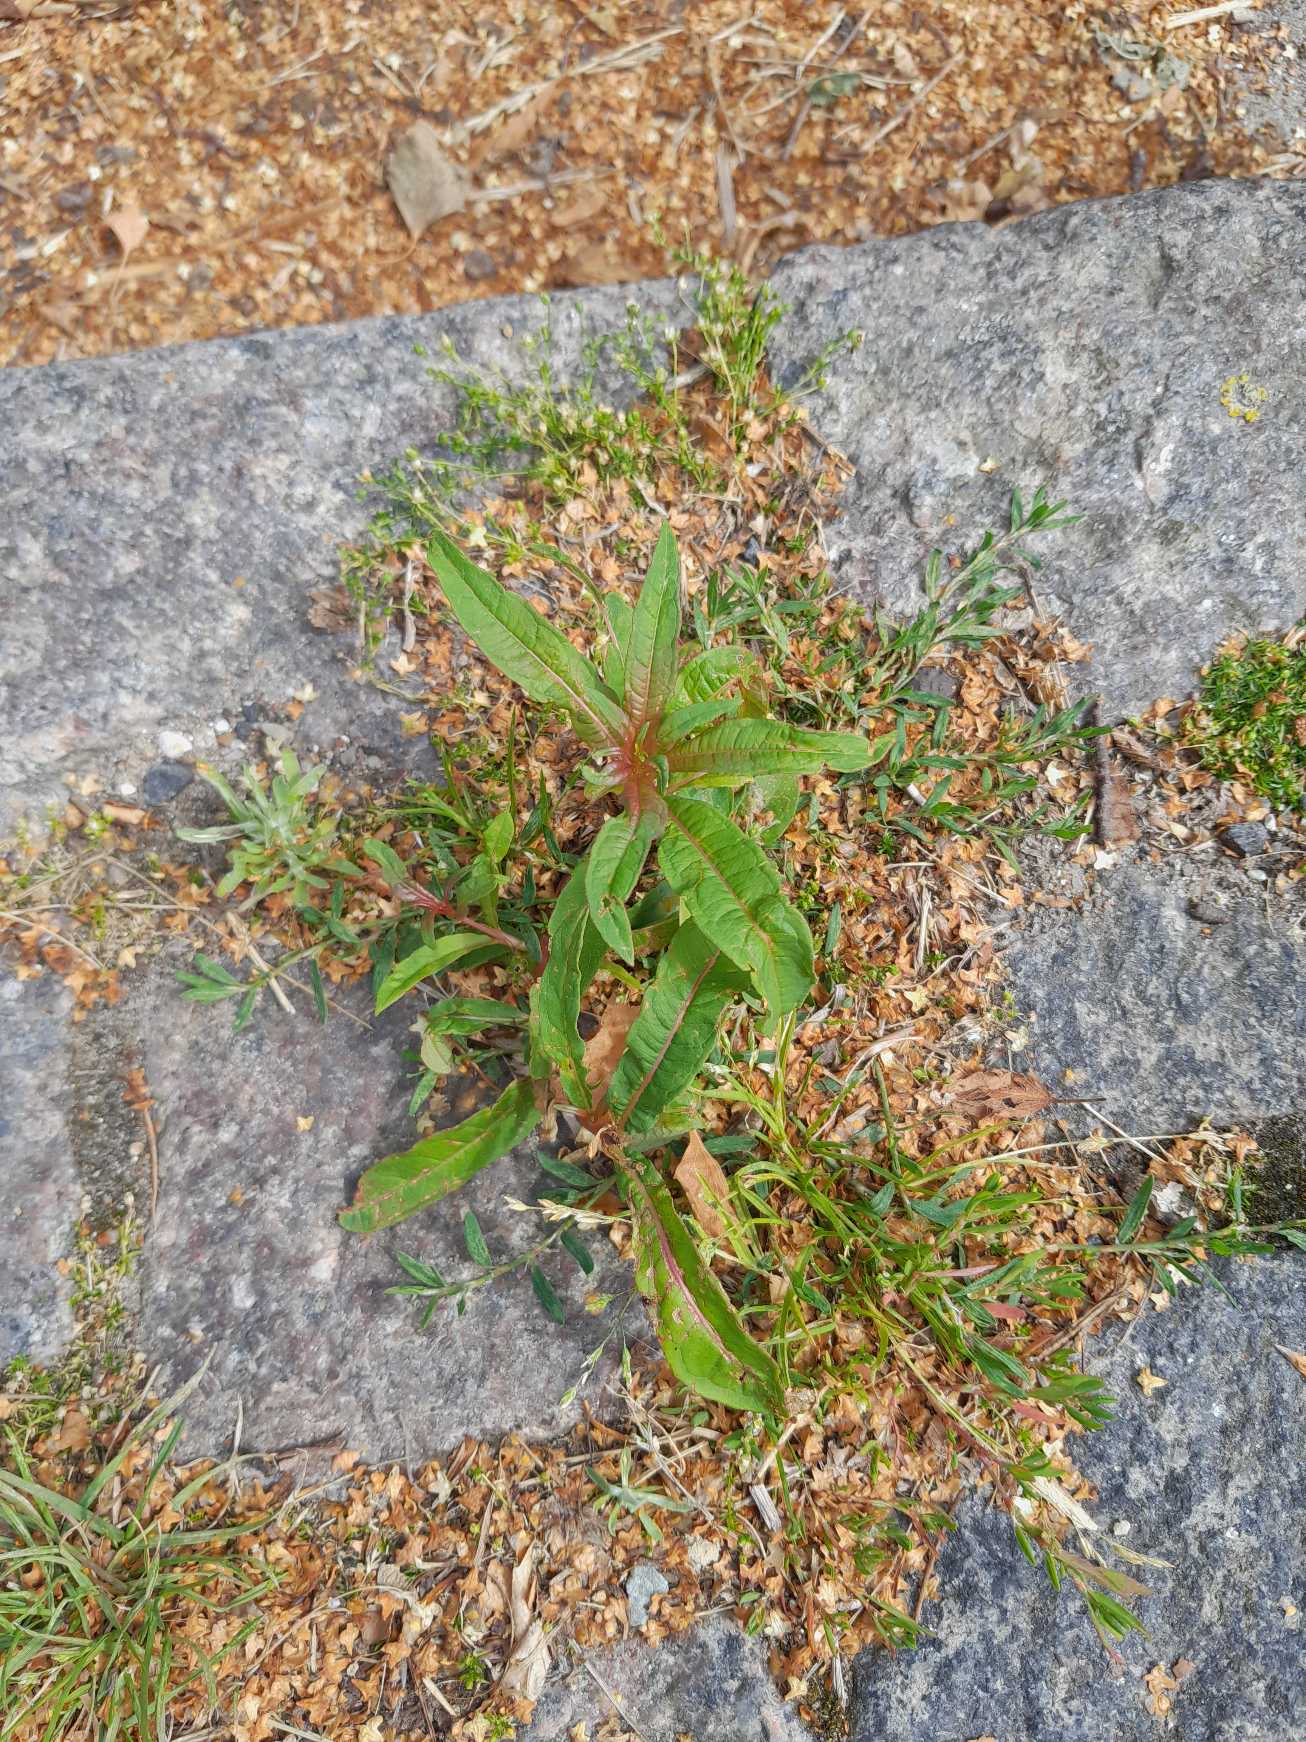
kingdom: Plantae
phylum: Tracheophyta
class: Magnoliopsida
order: Myrtales
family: Onagraceae
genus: Chamaenerion
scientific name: Chamaenerion angustifolium
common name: Gederams
